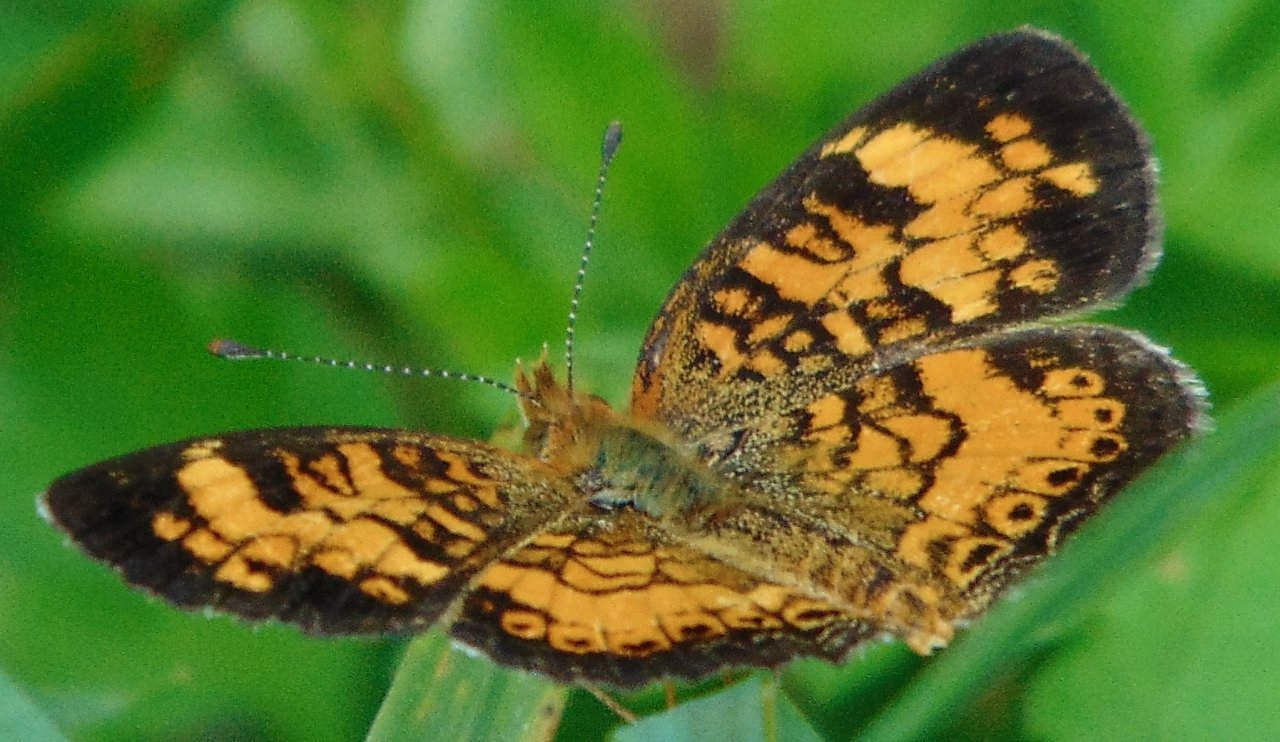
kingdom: Animalia
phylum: Arthropoda
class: Insecta
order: Lepidoptera
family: Nymphalidae
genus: Phyciodes
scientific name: Phyciodes tharos
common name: Pearl Crescent
